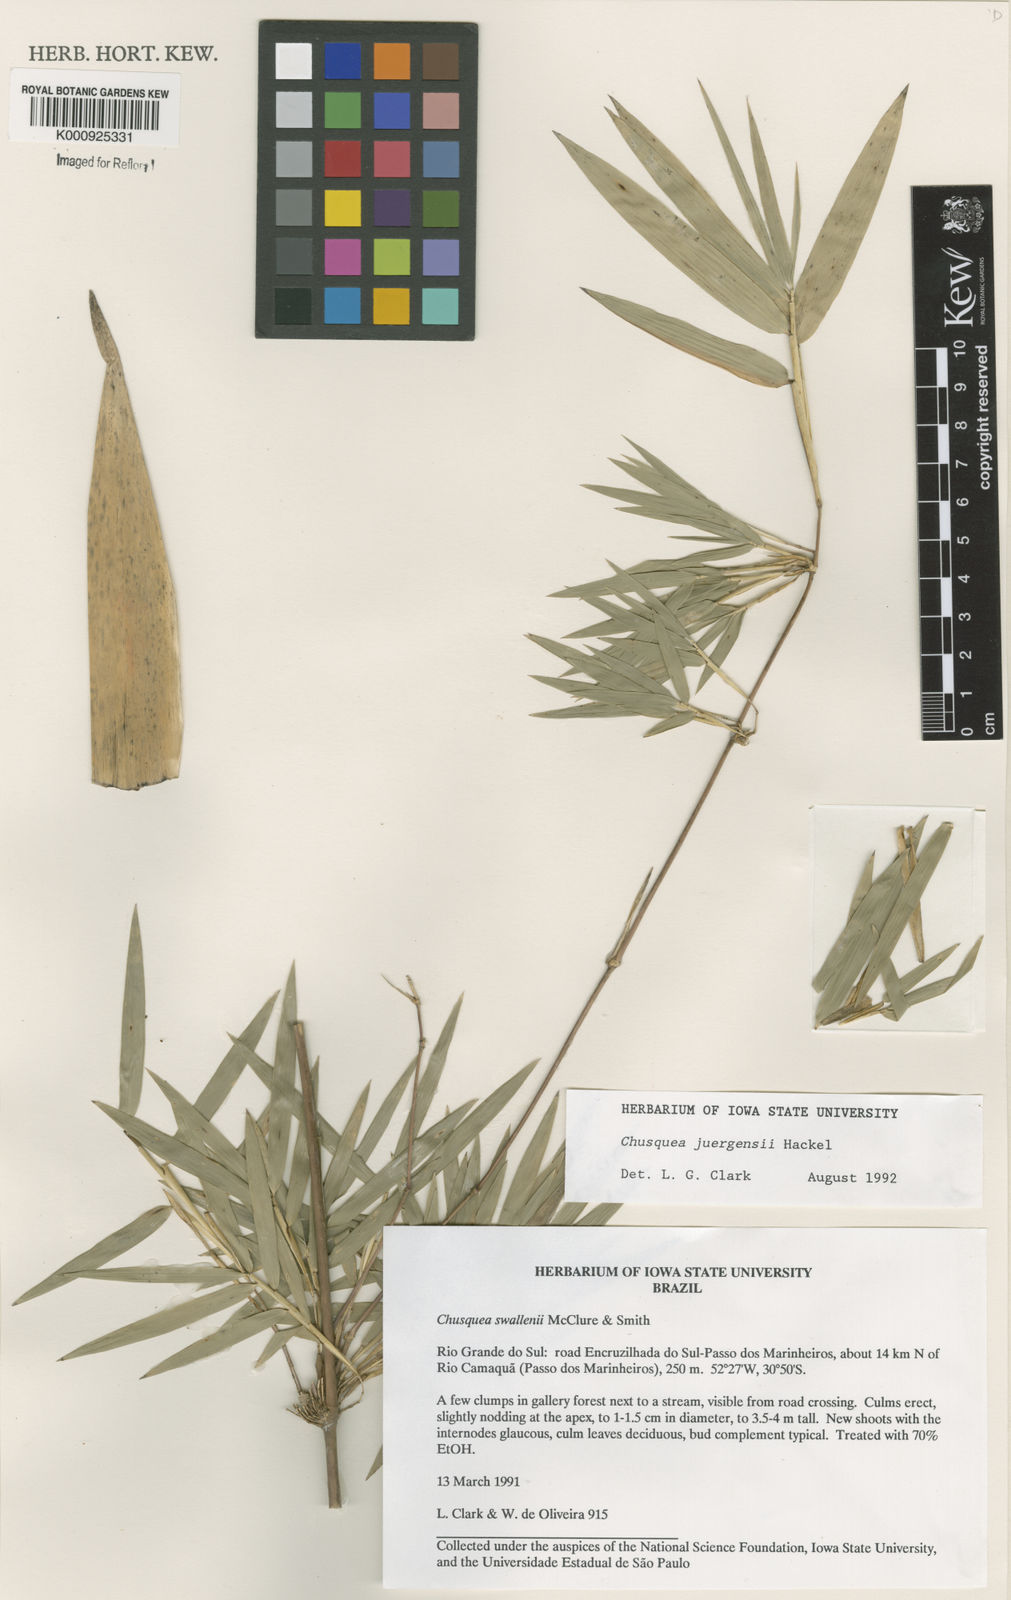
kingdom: Plantae
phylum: Tracheophyta
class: Liliopsida
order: Poales
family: Poaceae
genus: Chusquea
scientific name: Chusquea juergensii
